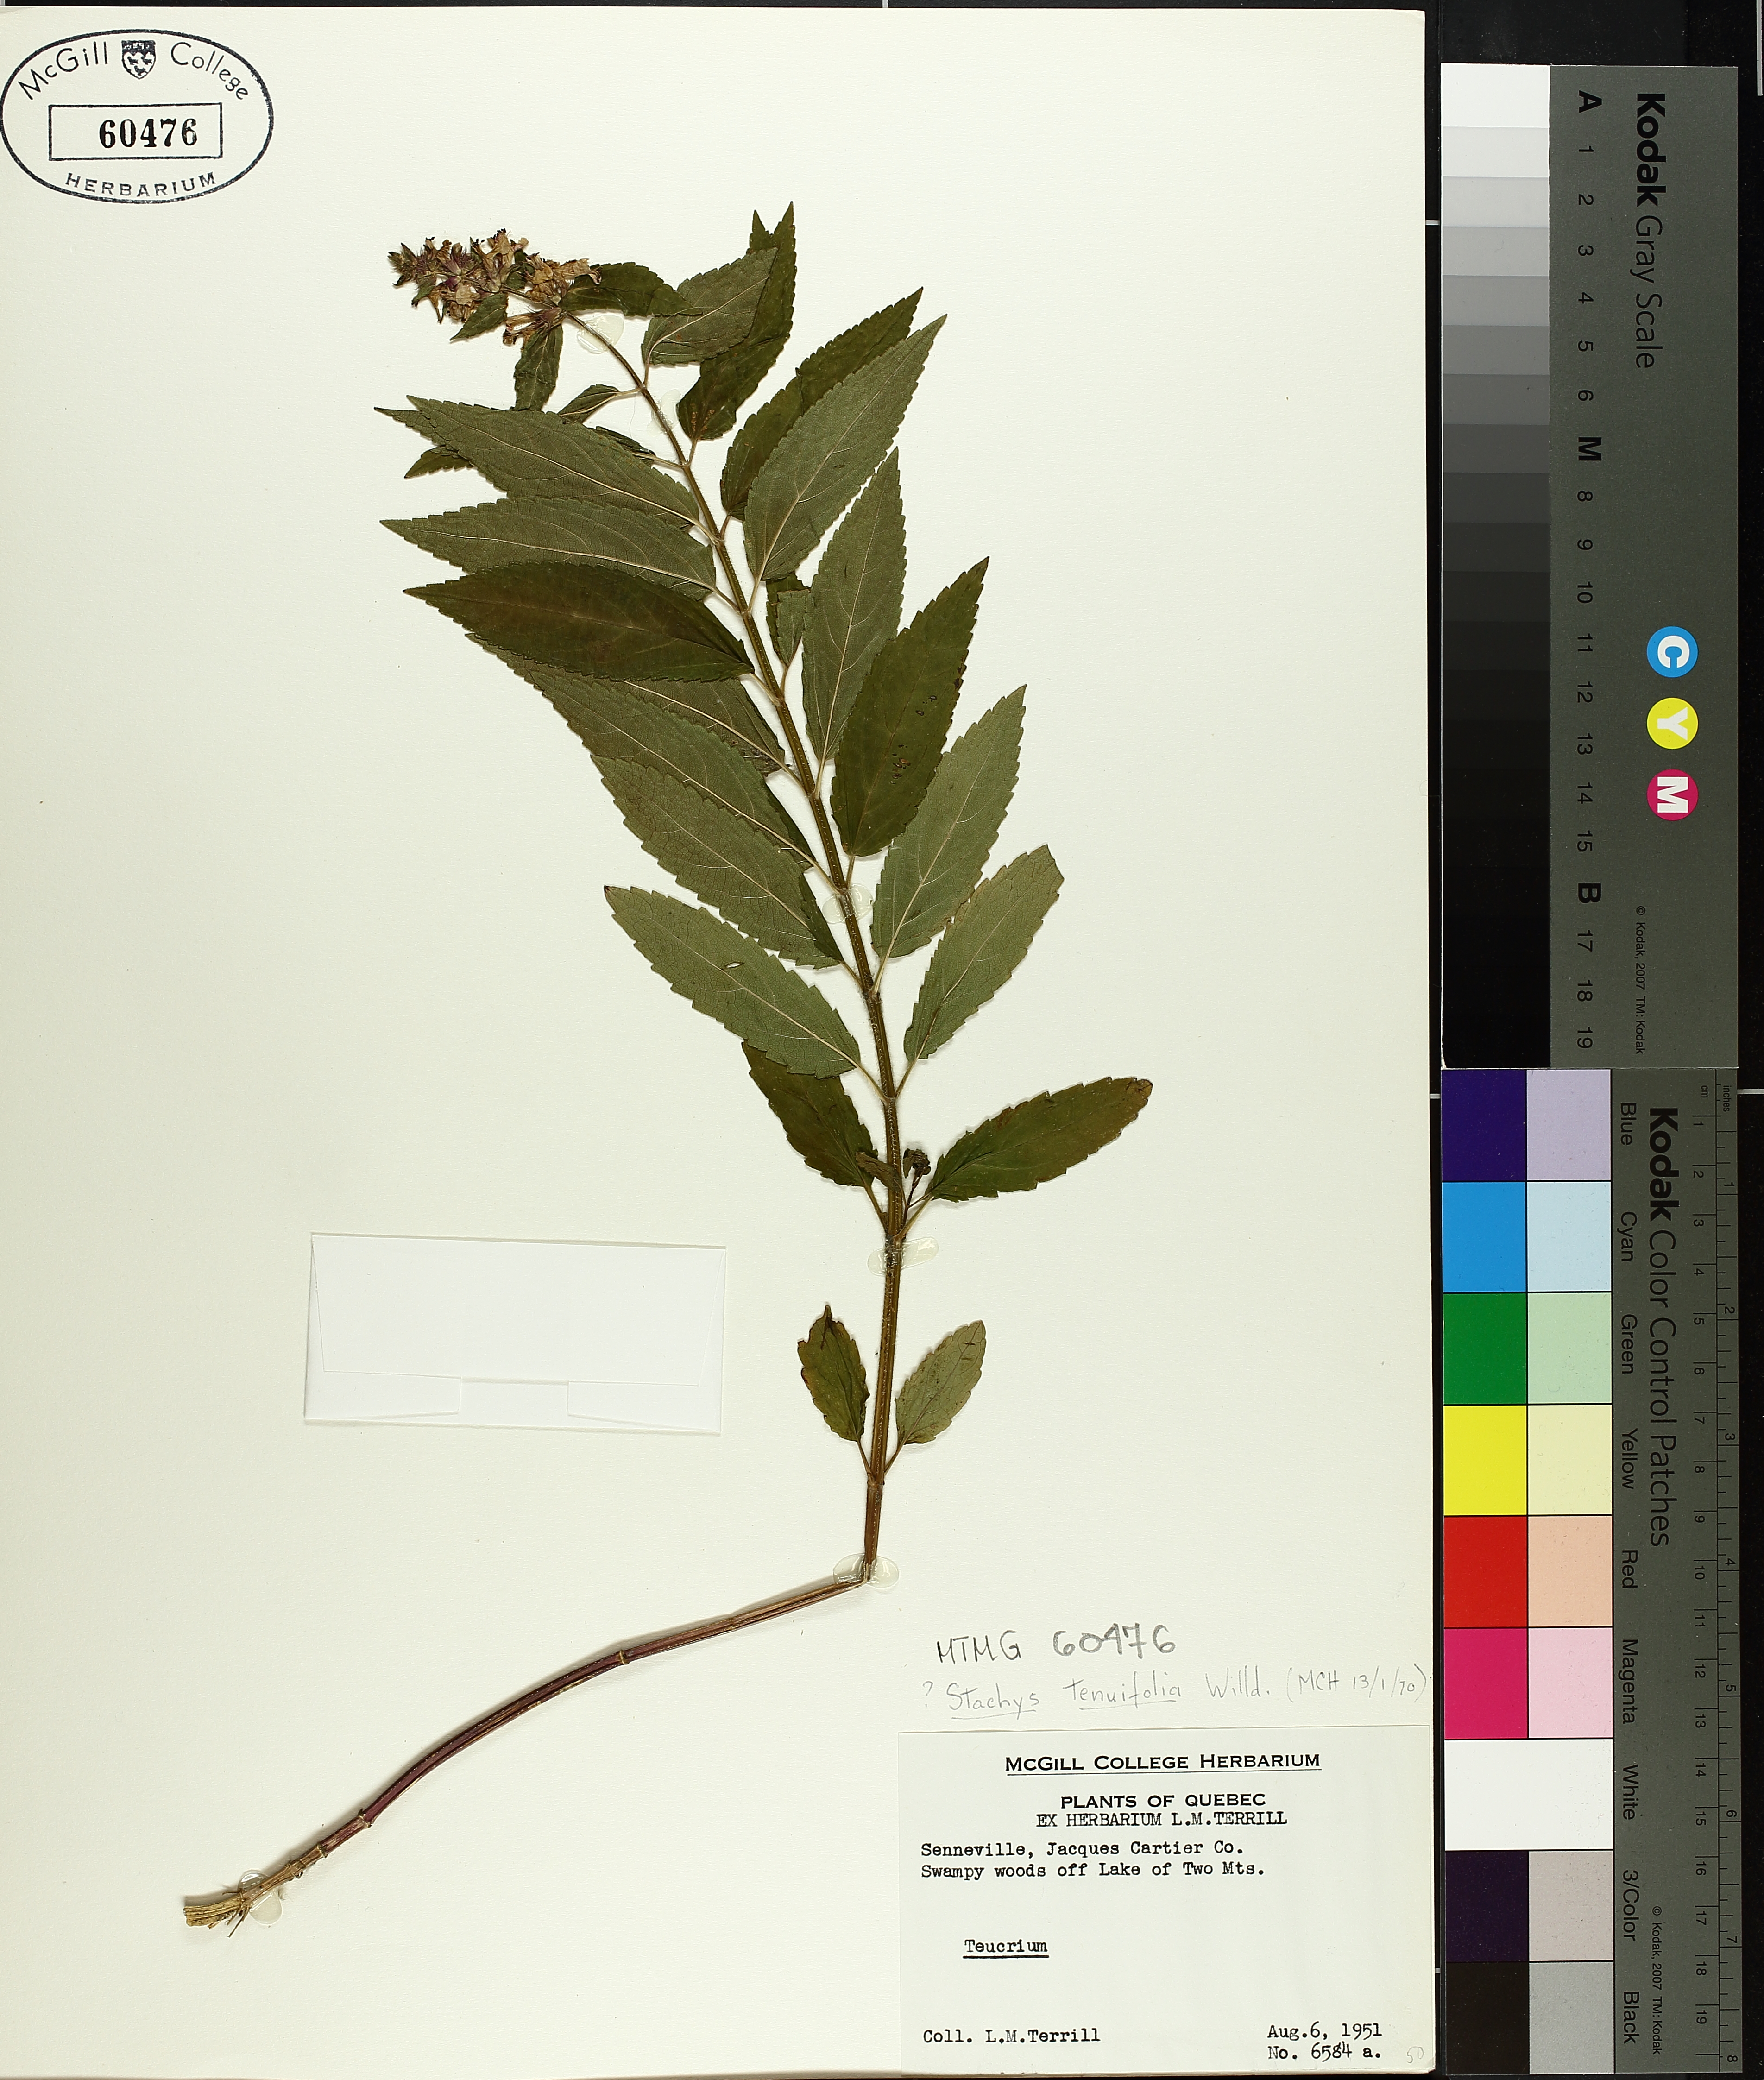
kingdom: Plantae
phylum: Tracheophyta
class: Magnoliopsida
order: Lamiales
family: Lamiaceae
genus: Stachys
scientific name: Stachys tenuifolia
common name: Smooth hedge-nettle
